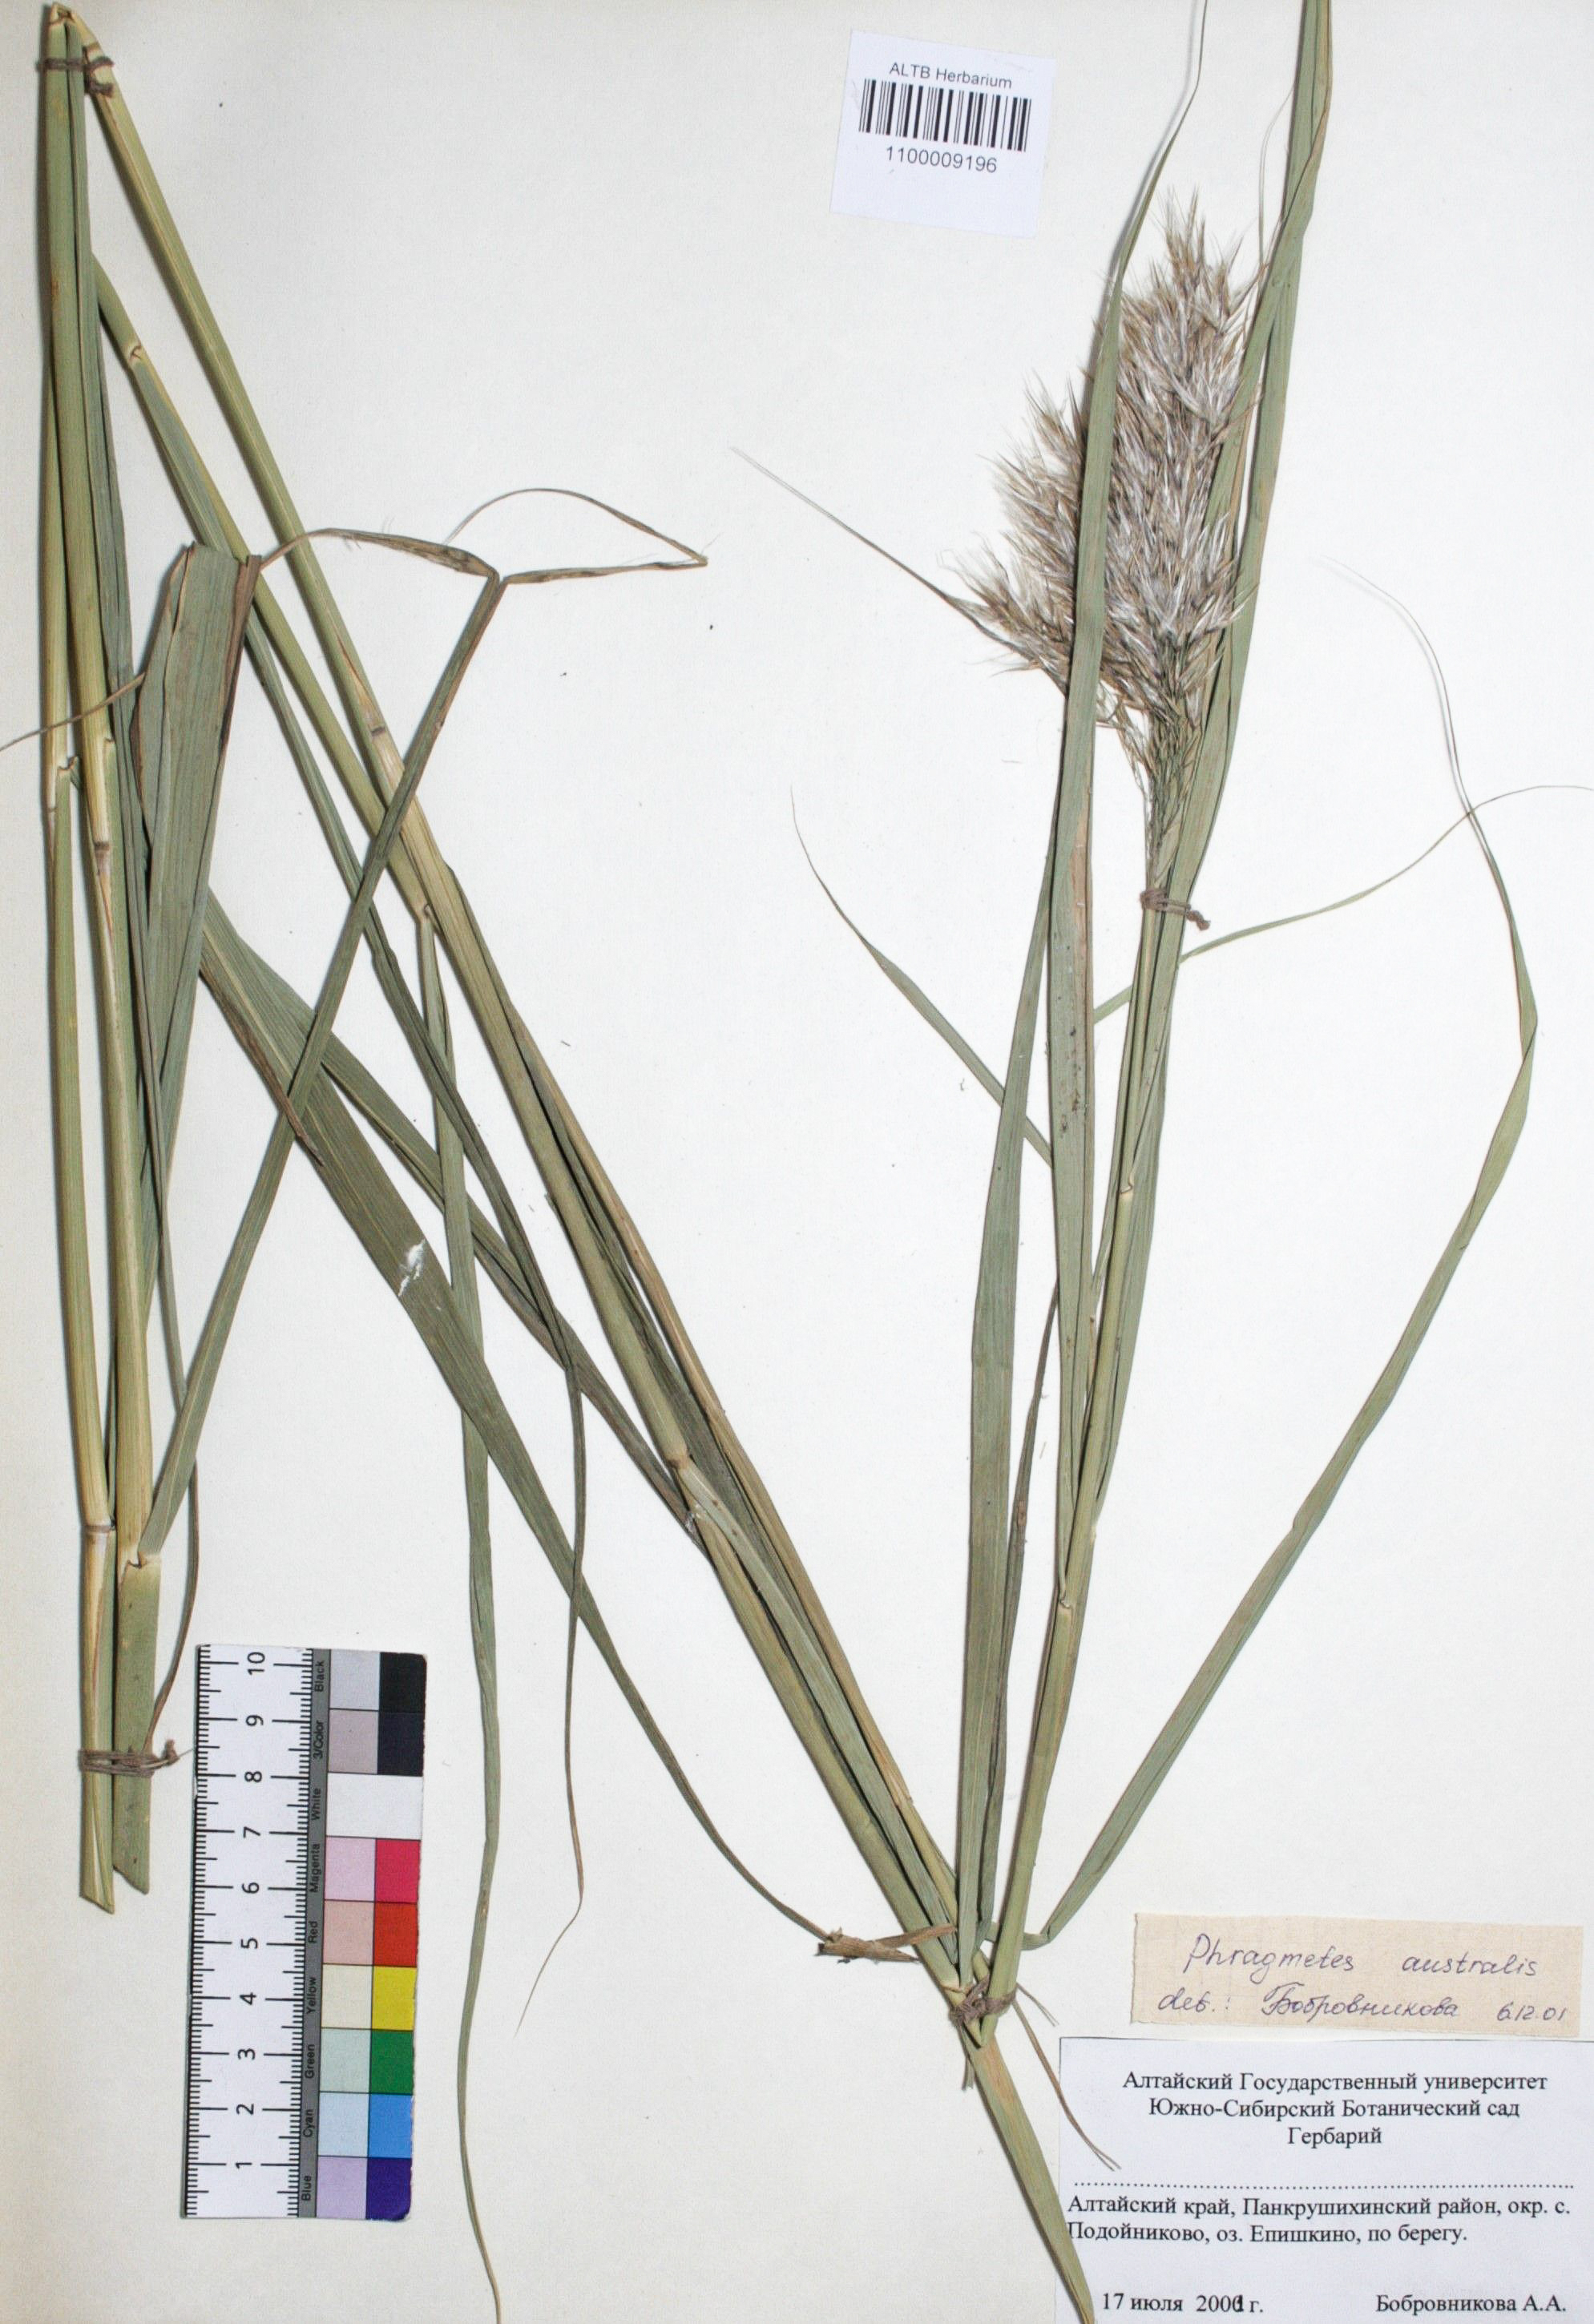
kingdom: Plantae
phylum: Tracheophyta
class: Liliopsida
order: Poales
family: Poaceae
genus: Phragmites
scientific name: Phragmites australis
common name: Common reed
